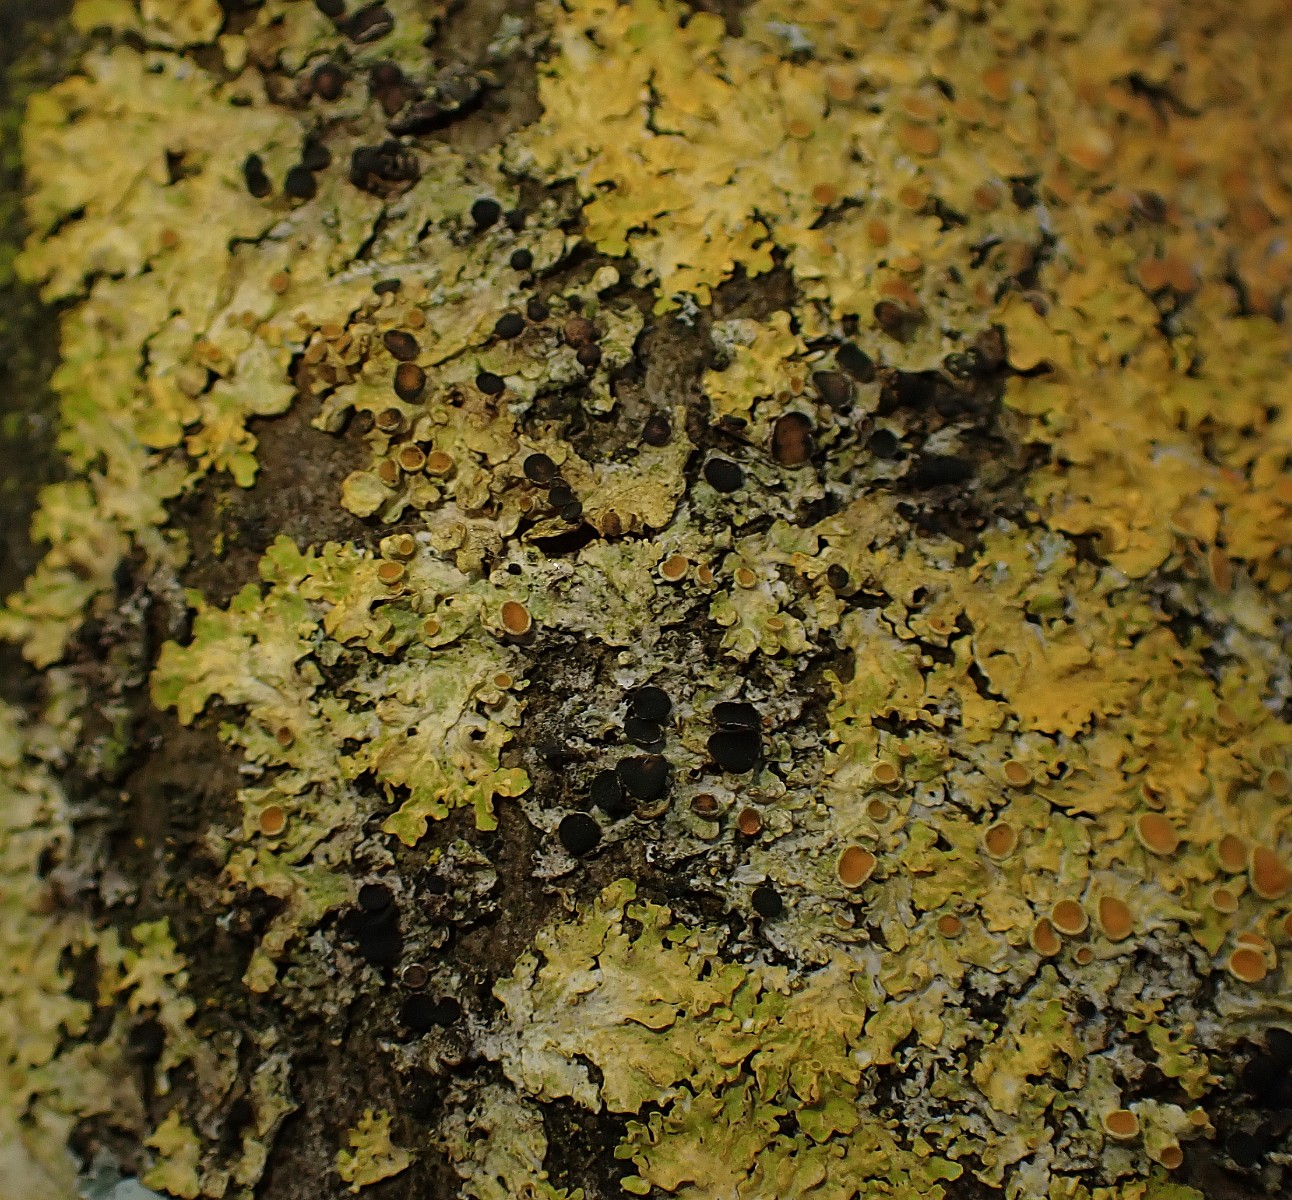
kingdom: Fungi
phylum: Ascomycota
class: Dothideomycetes
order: Mycosphaerellales
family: Teratosphaeriaceae
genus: Xanthoriicola
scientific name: Xanthoriicola physciae
